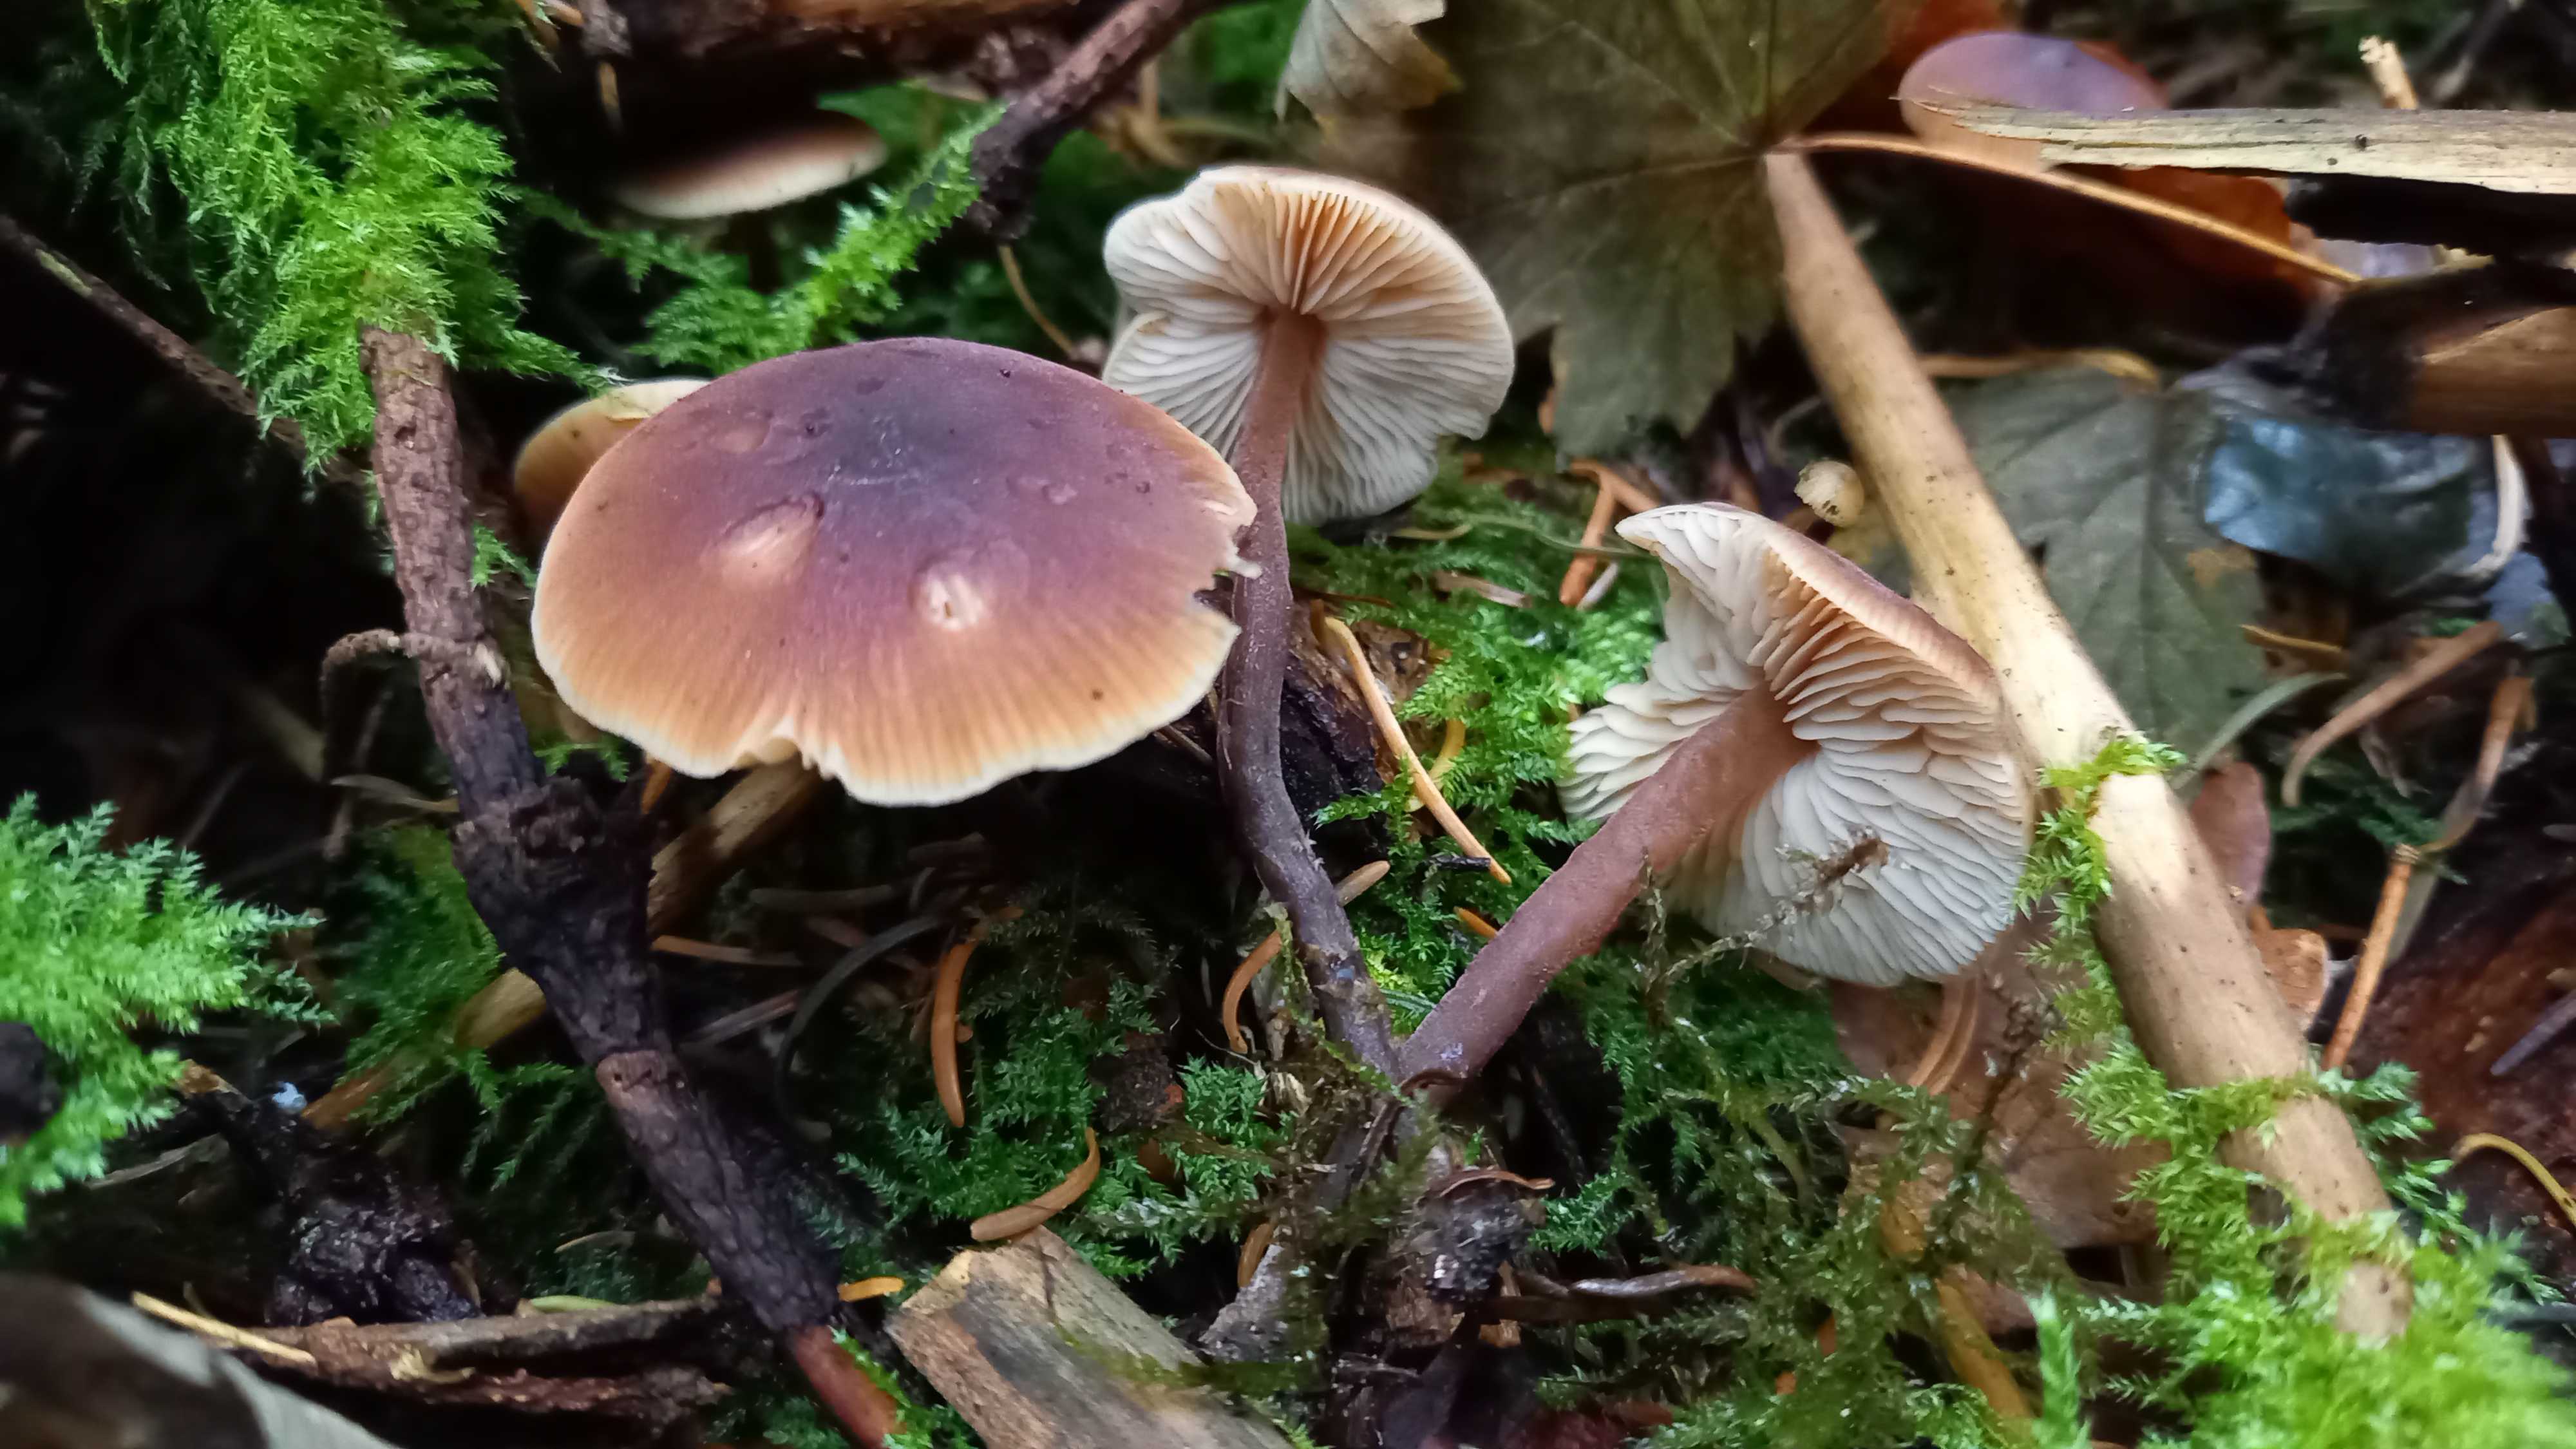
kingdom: Fungi
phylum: Basidiomycota
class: Agaricomycetes
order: Agaricales
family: Macrocystidiaceae
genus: Macrocystidia
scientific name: Macrocystidia cucumis
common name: agurkehat
